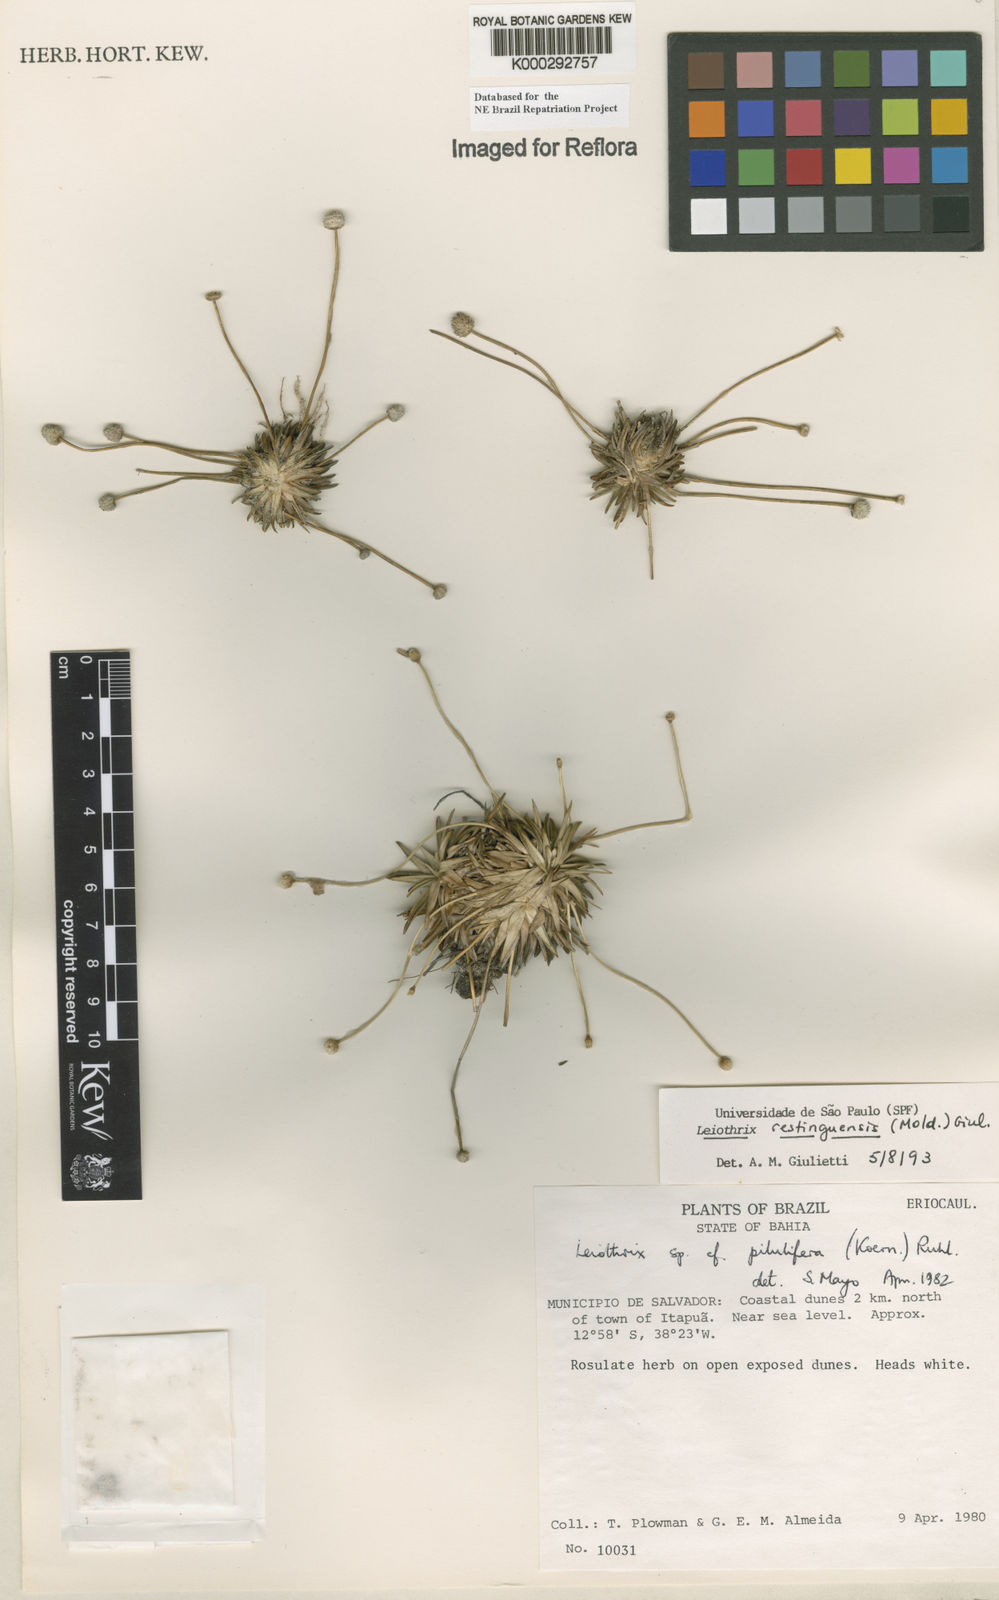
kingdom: Plantae
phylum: Tracheophyta
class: Liliopsida
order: Poales
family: Eriocaulaceae
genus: Leiothrix
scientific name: Leiothrix
